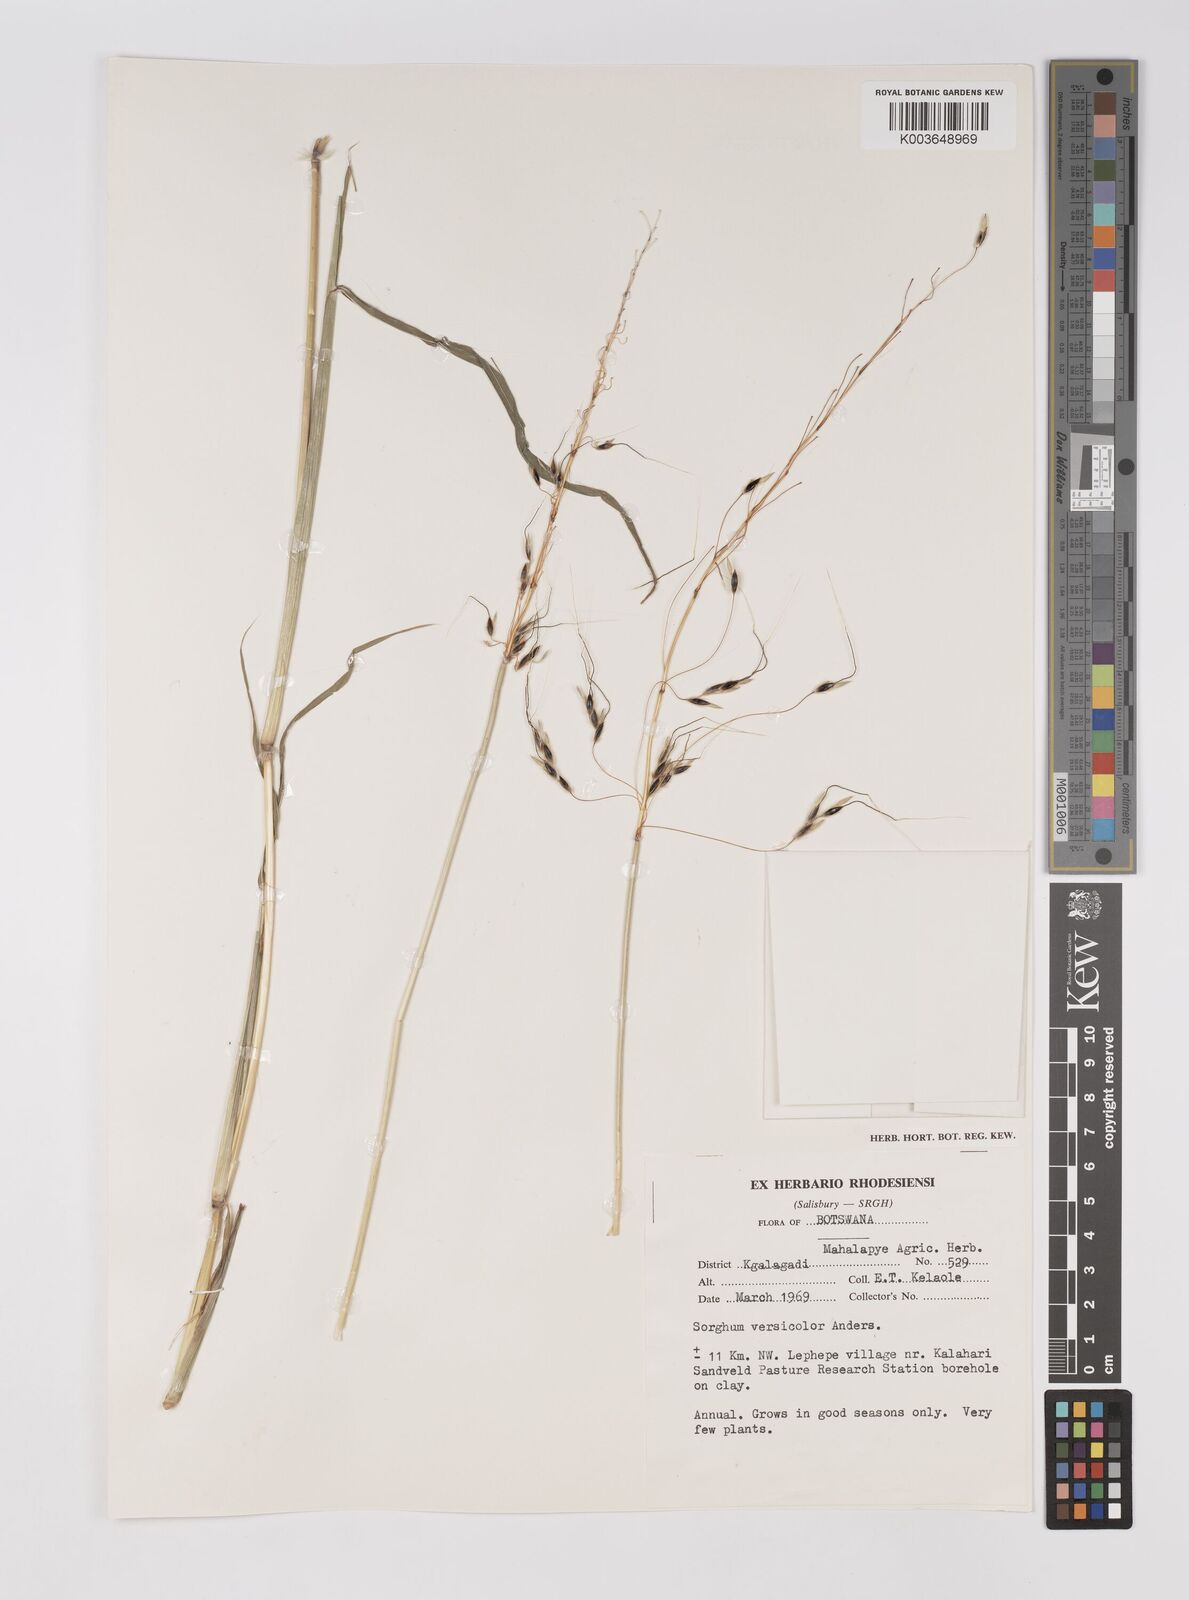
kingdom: Plantae
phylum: Tracheophyta
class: Liliopsida
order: Poales
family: Poaceae
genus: Sarga
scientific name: Sarga versicolor
